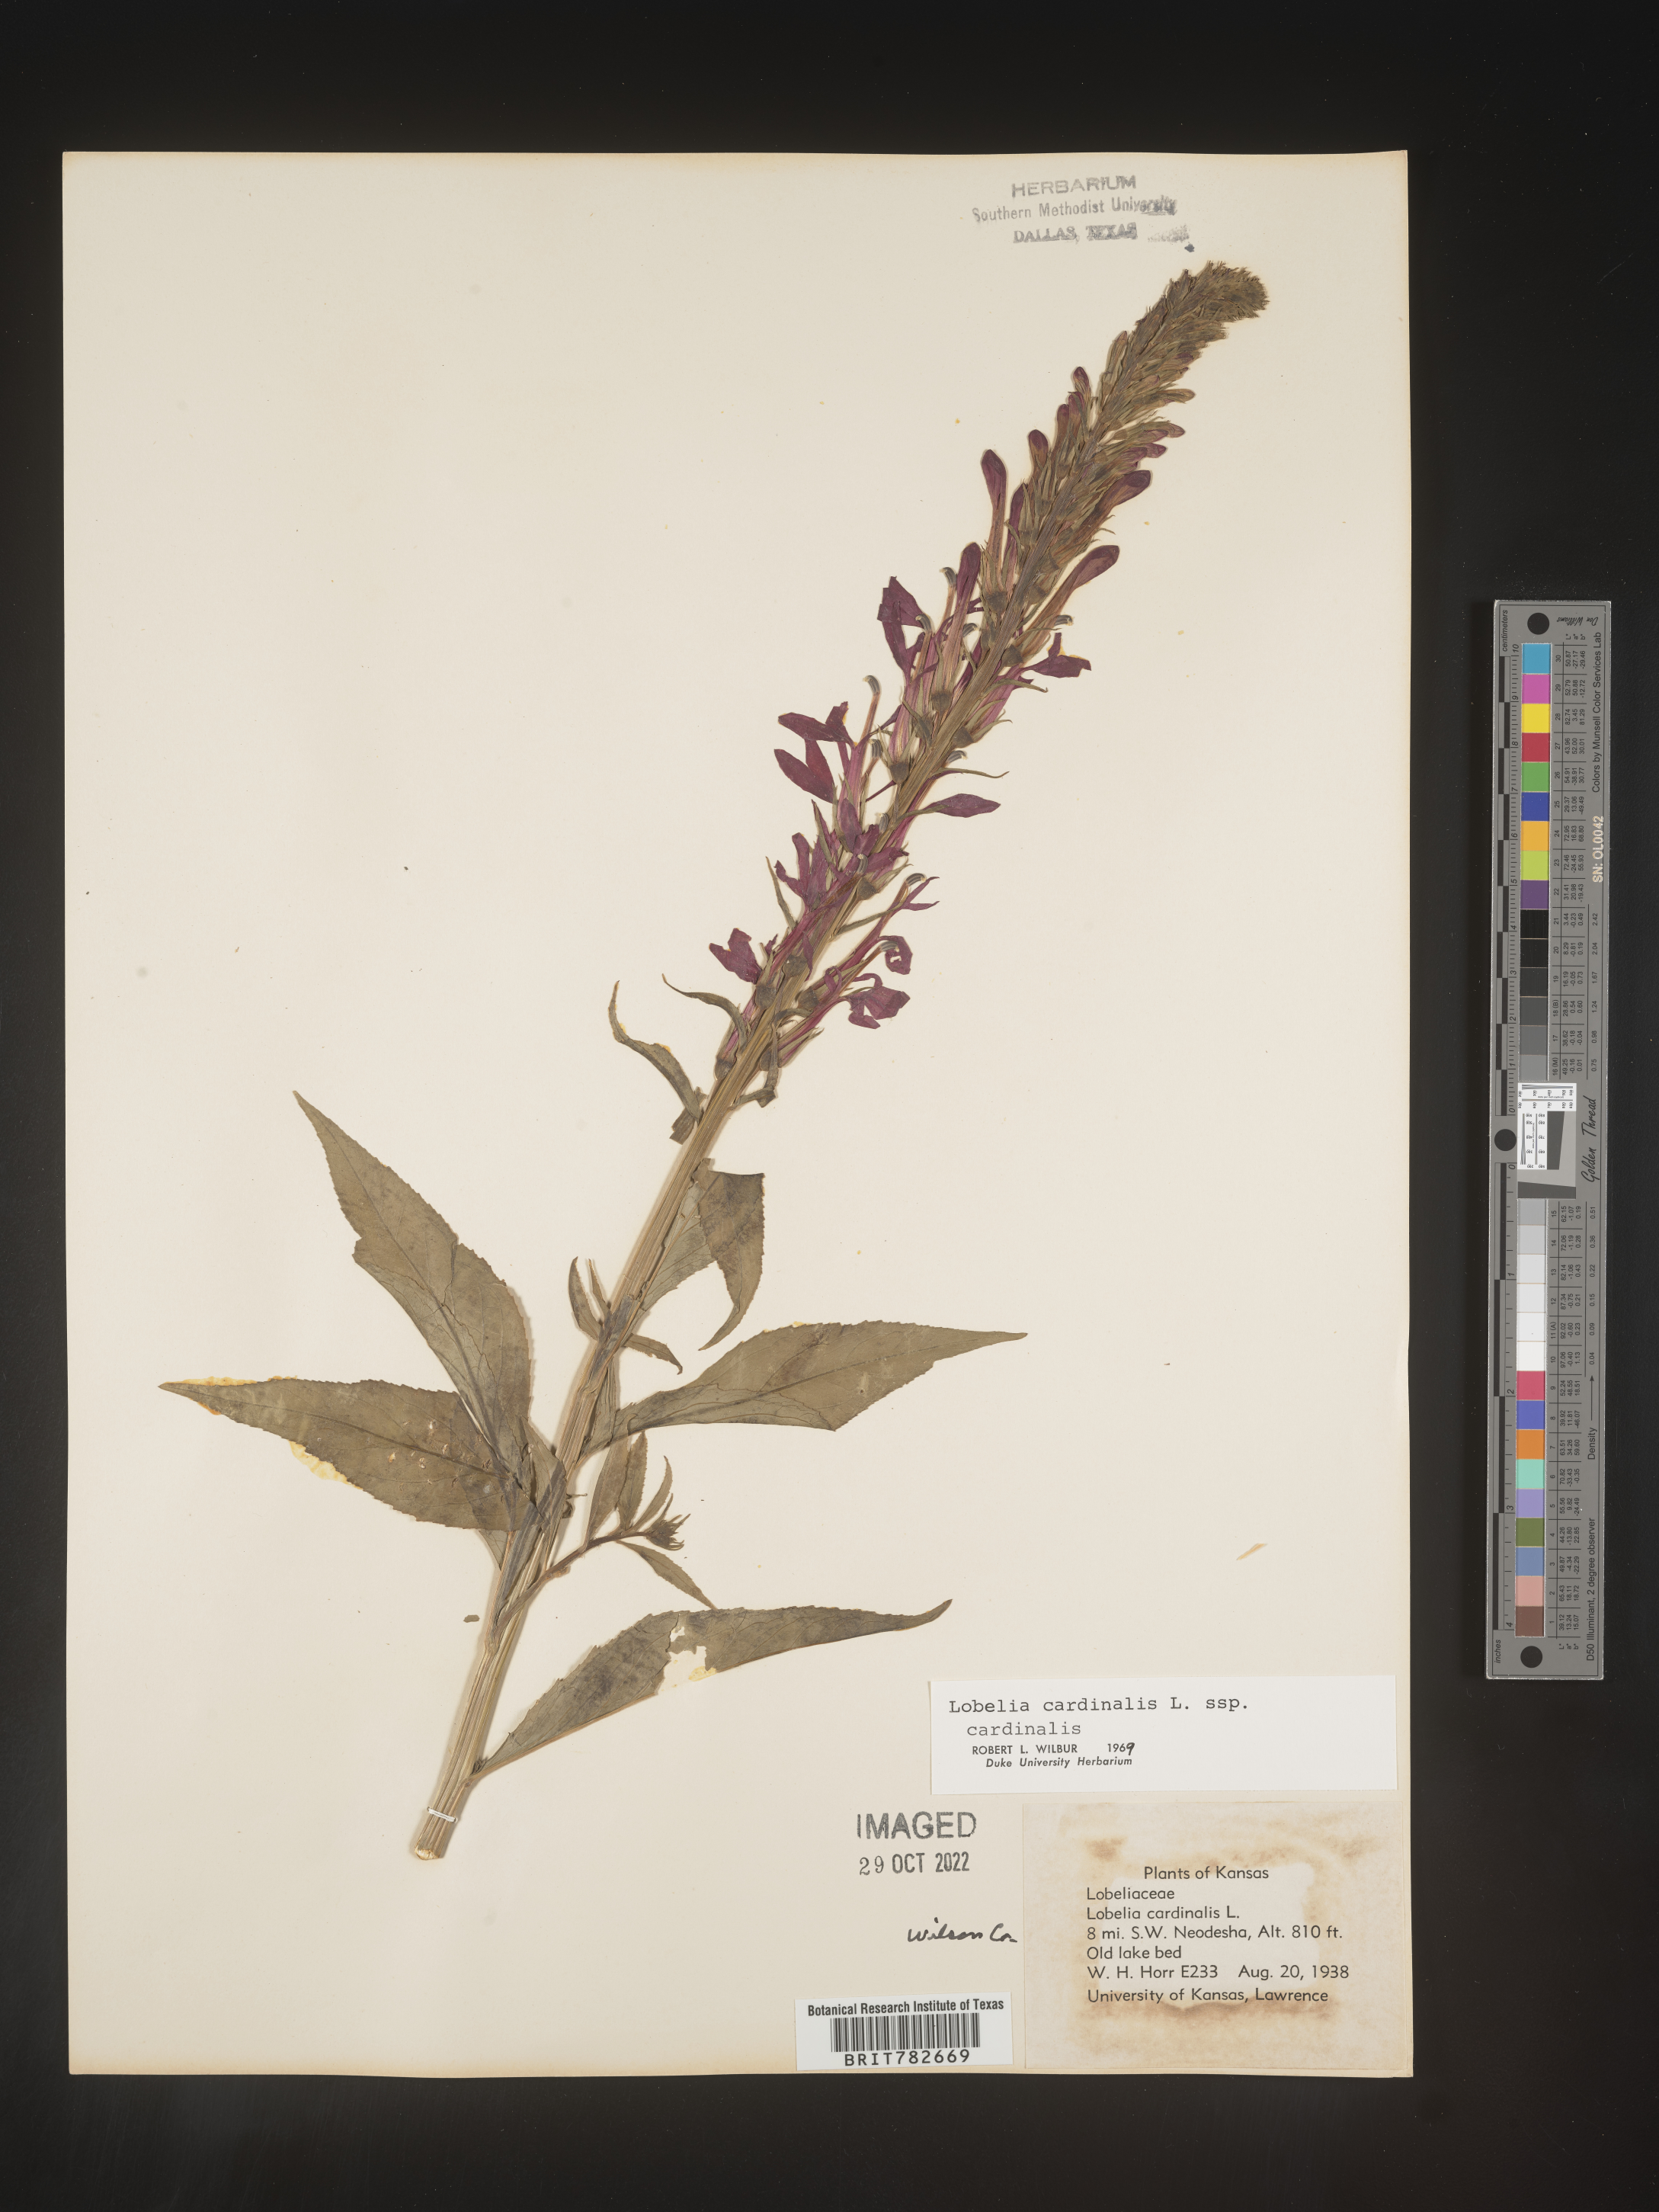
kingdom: Plantae
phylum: Tracheophyta
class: Magnoliopsida
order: Asterales
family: Campanulaceae
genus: Lobelia
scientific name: Lobelia cardinalis
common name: Cardinal flower
